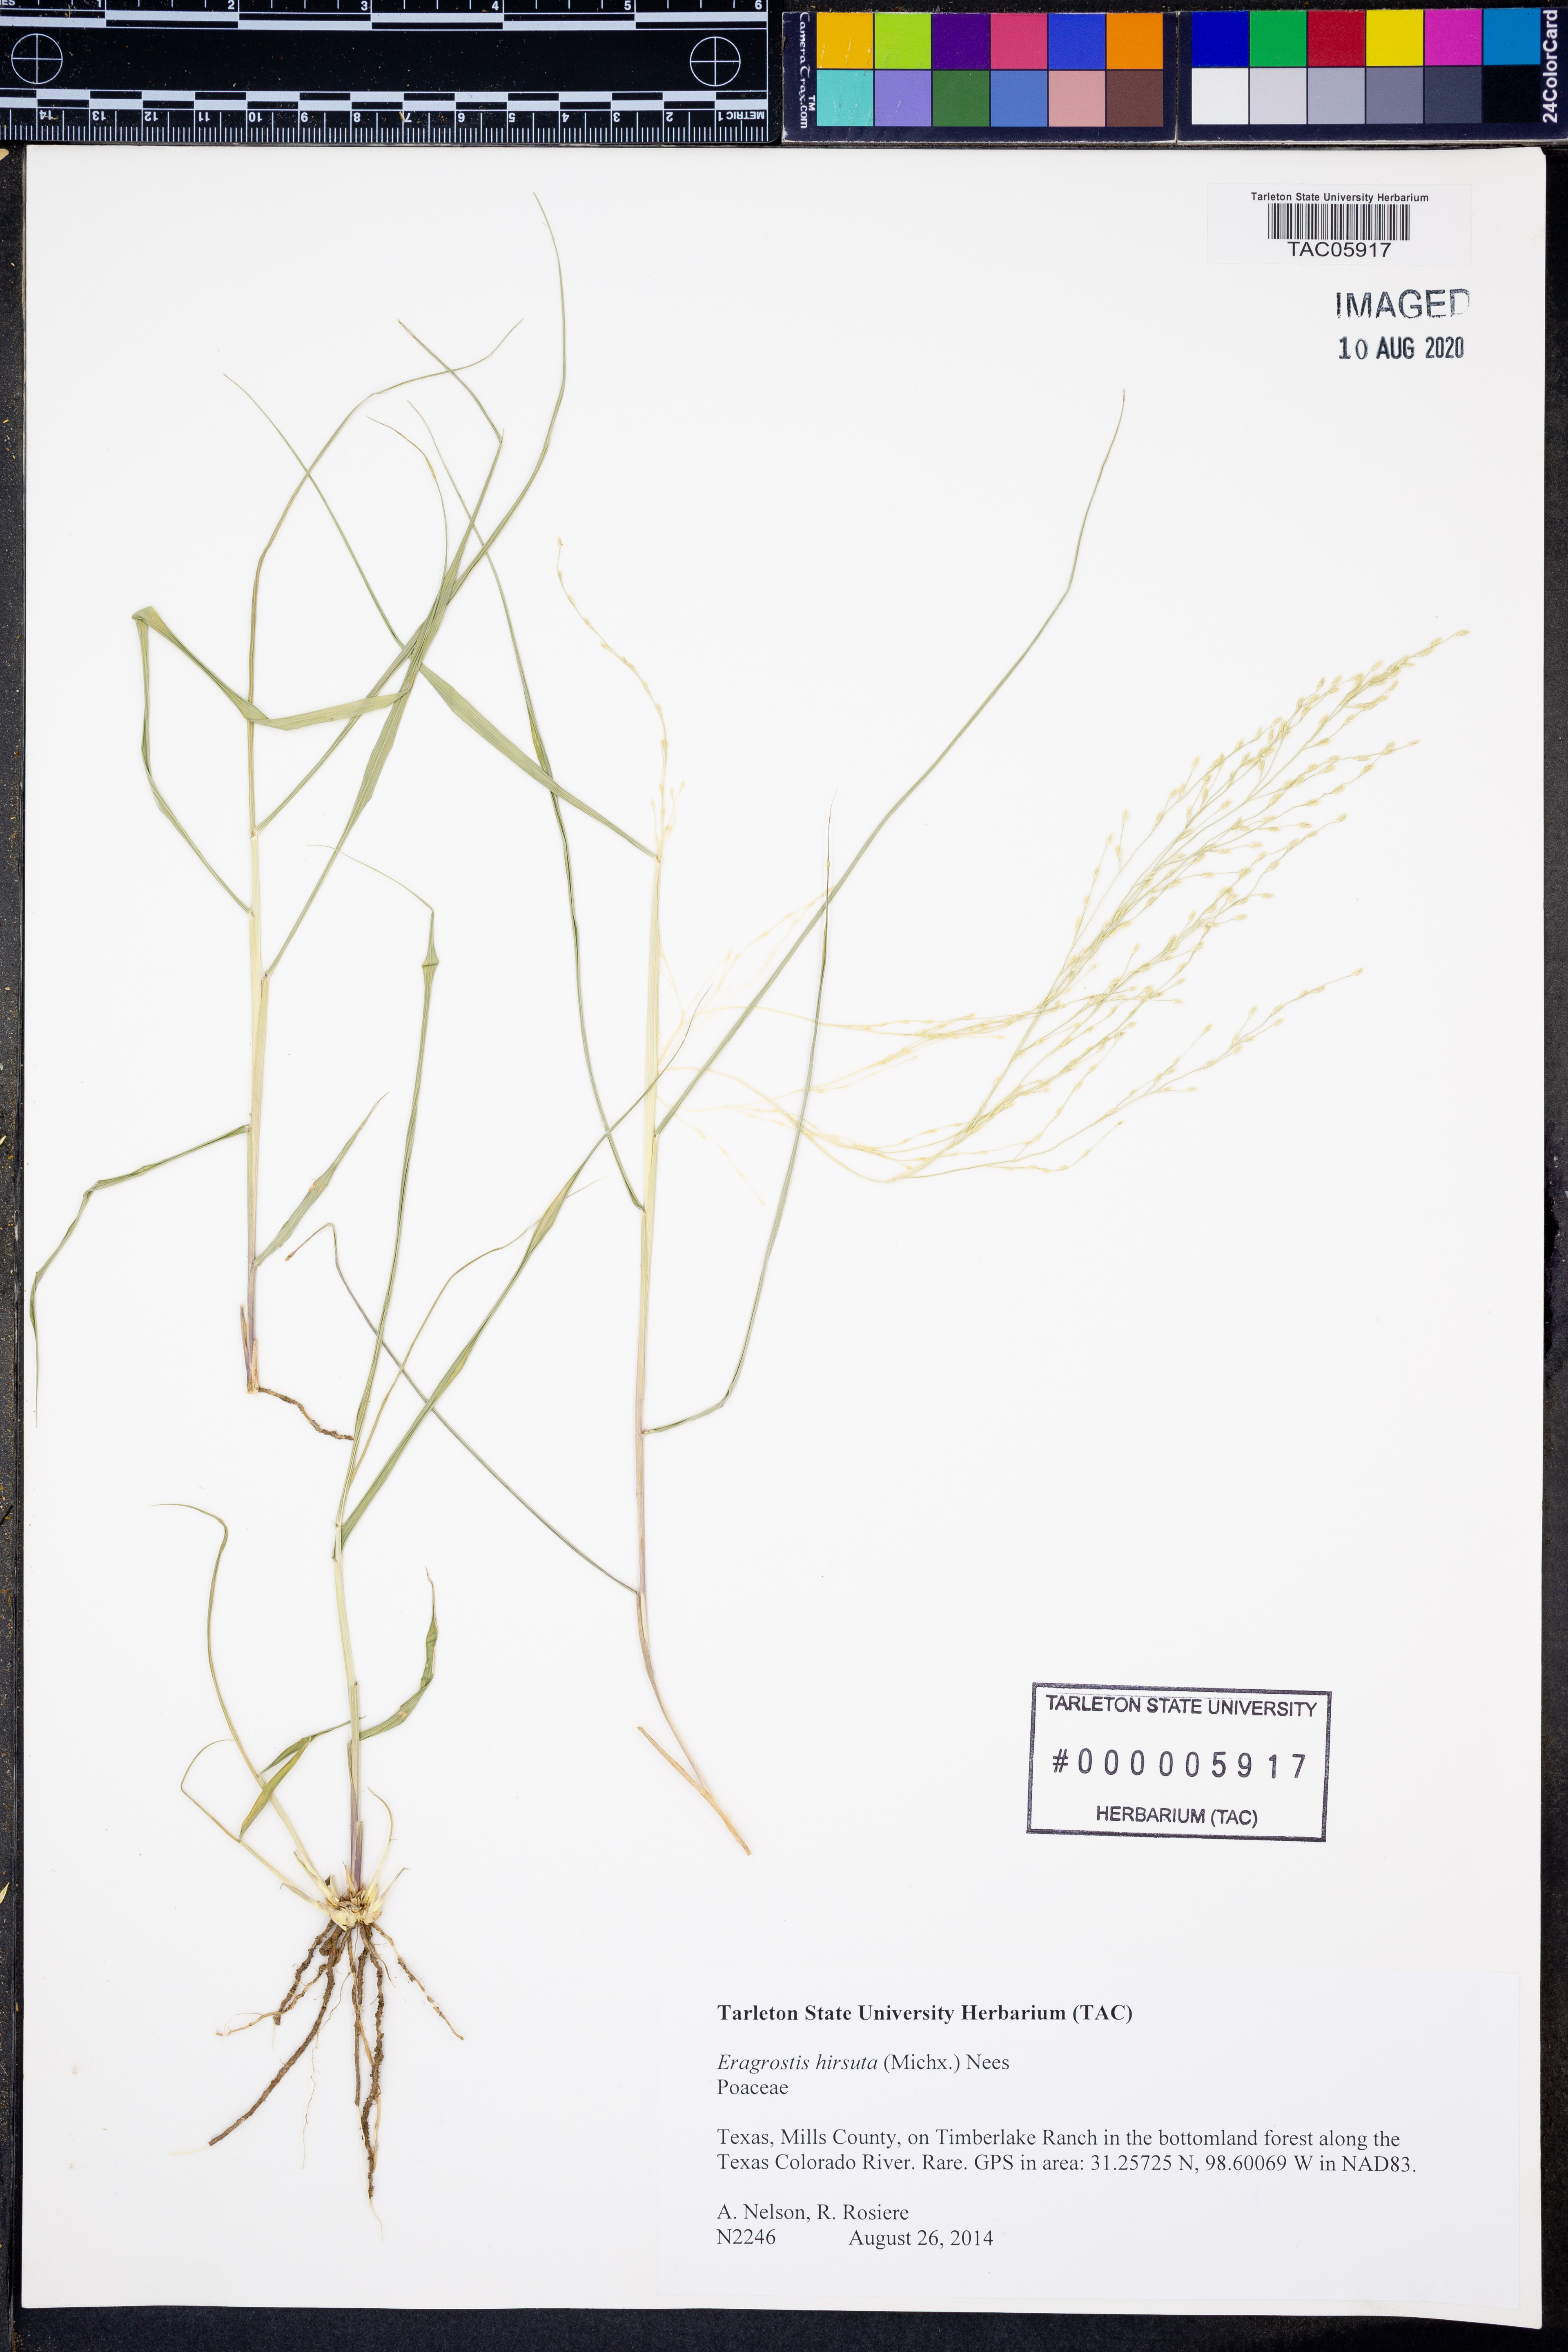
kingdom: Plantae
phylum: Tracheophyta
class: Liliopsida
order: Poales
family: Poaceae
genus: Eragrostis
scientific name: Eragrostis hirsuta
